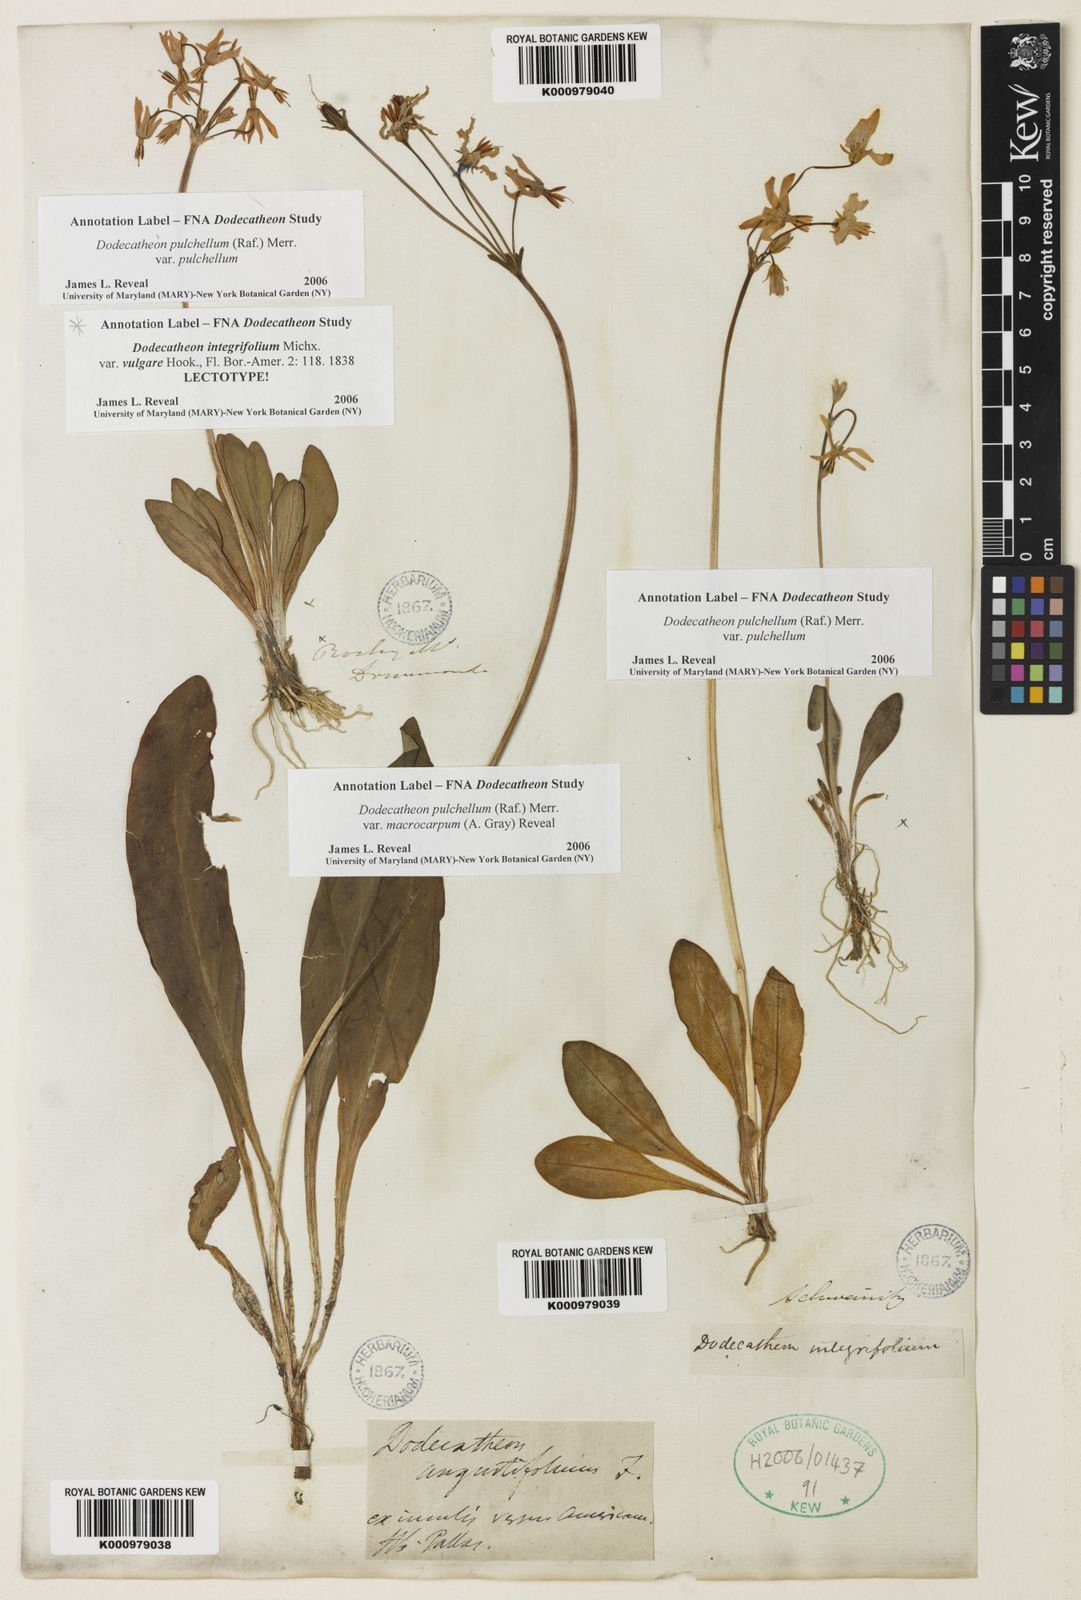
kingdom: Plantae
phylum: Tracheophyta
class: Magnoliopsida
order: Ericales
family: Primulaceae
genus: Dodecatheon
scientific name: Dodecatheon pulchellum
